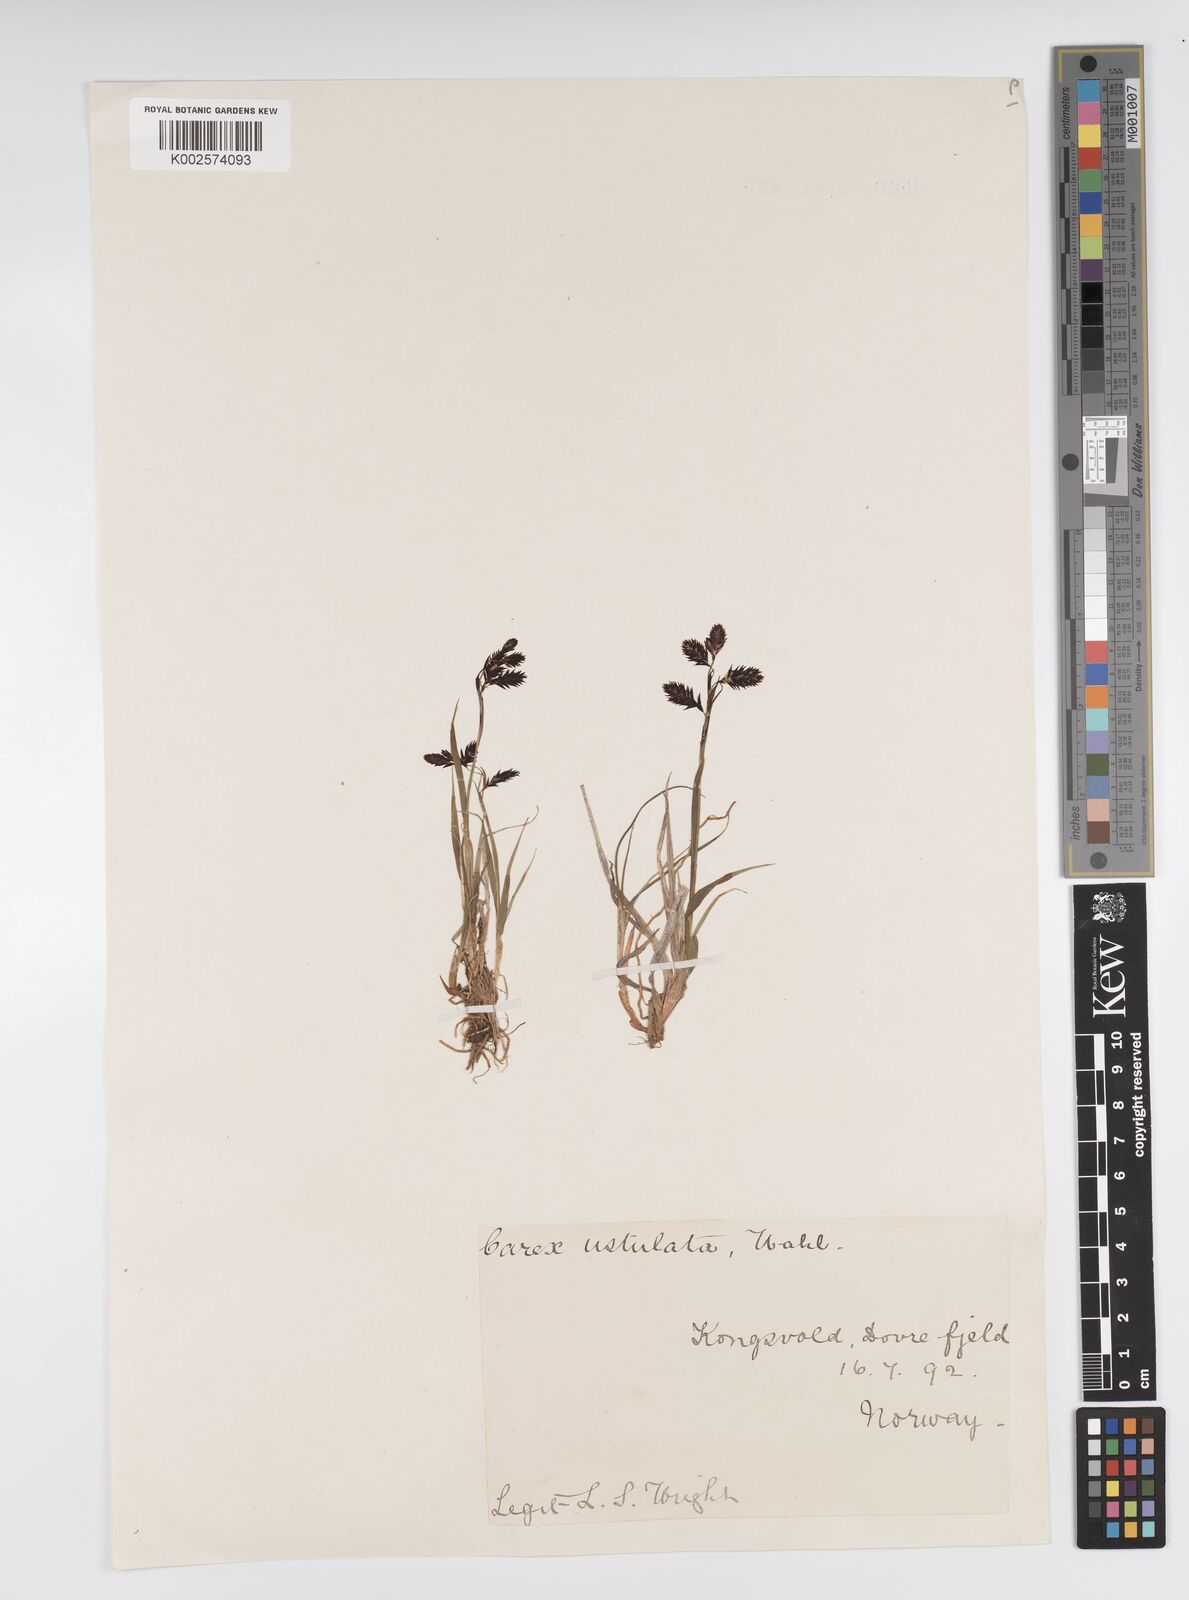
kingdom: Plantae
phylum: Tracheophyta
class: Liliopsida
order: Poales
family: Cyperaceae
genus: Carex
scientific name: Carex atrofusca
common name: Scorched alpine-sedge
